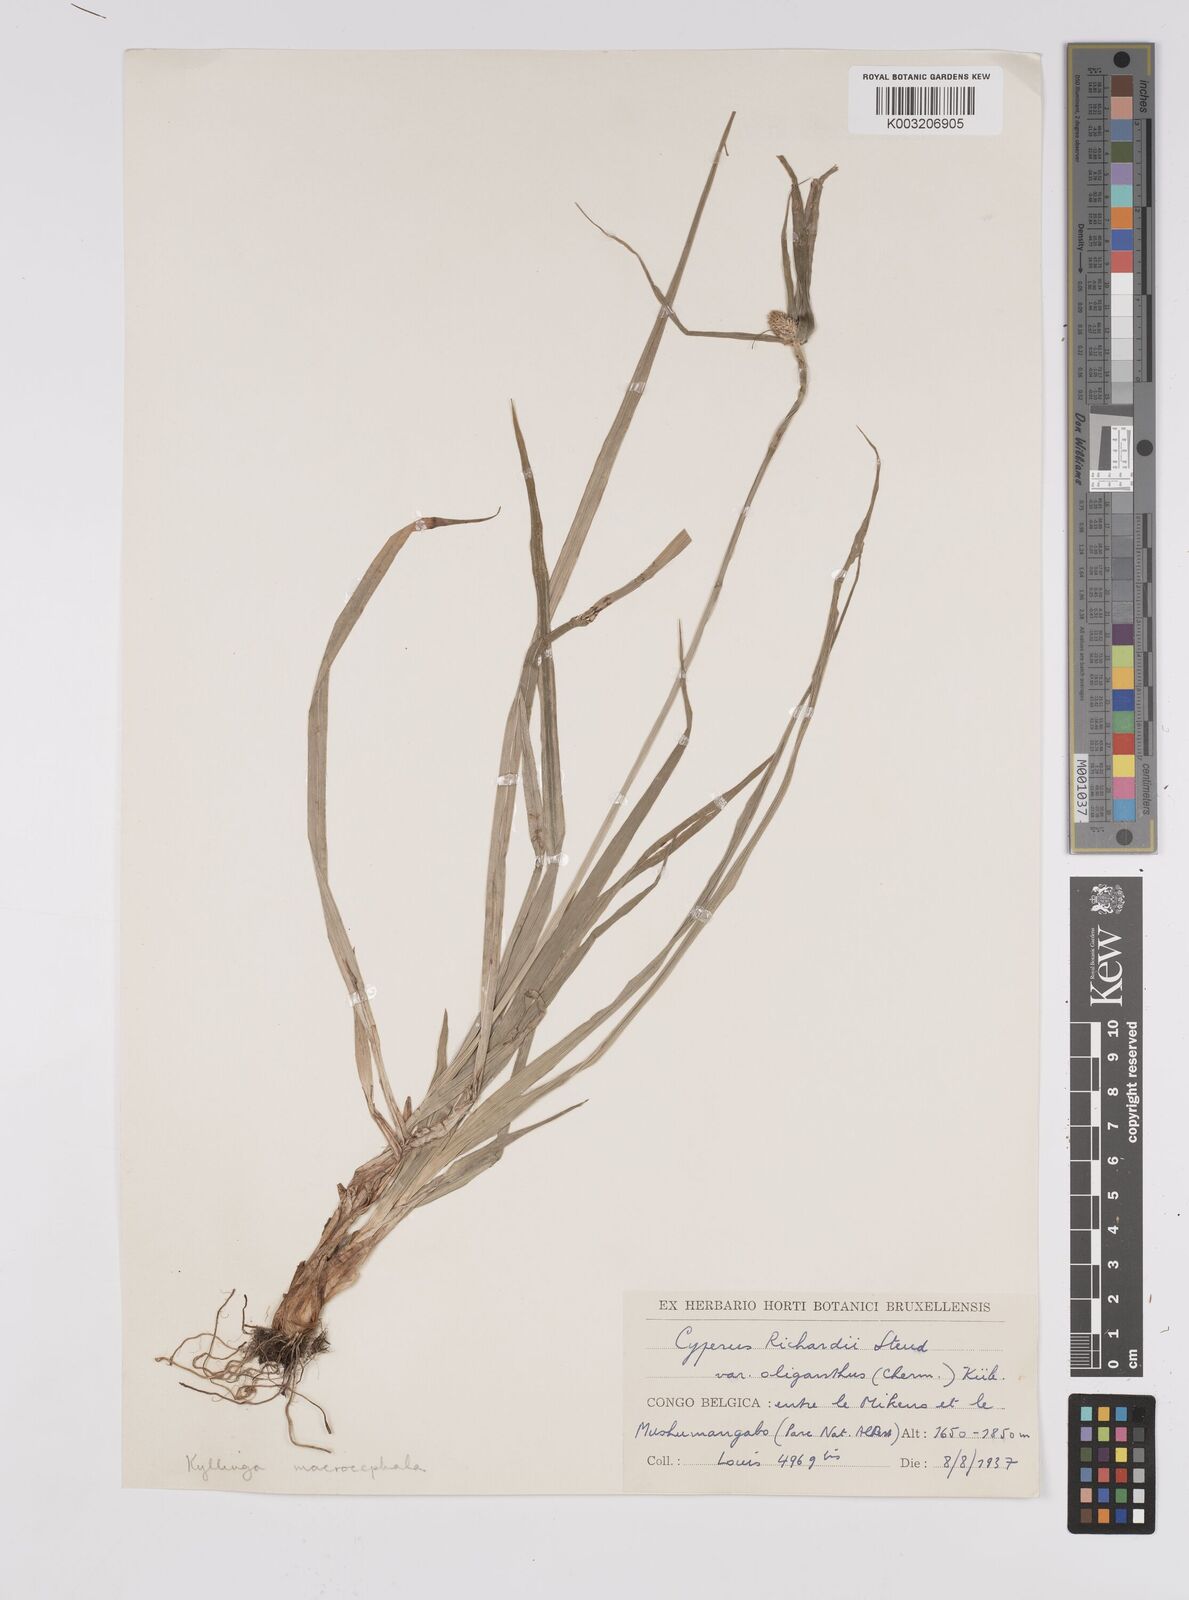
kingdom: Plantae
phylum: Tracheophyta
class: Liliopsida
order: Poales
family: Cyperaceae
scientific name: Cyperaceae
